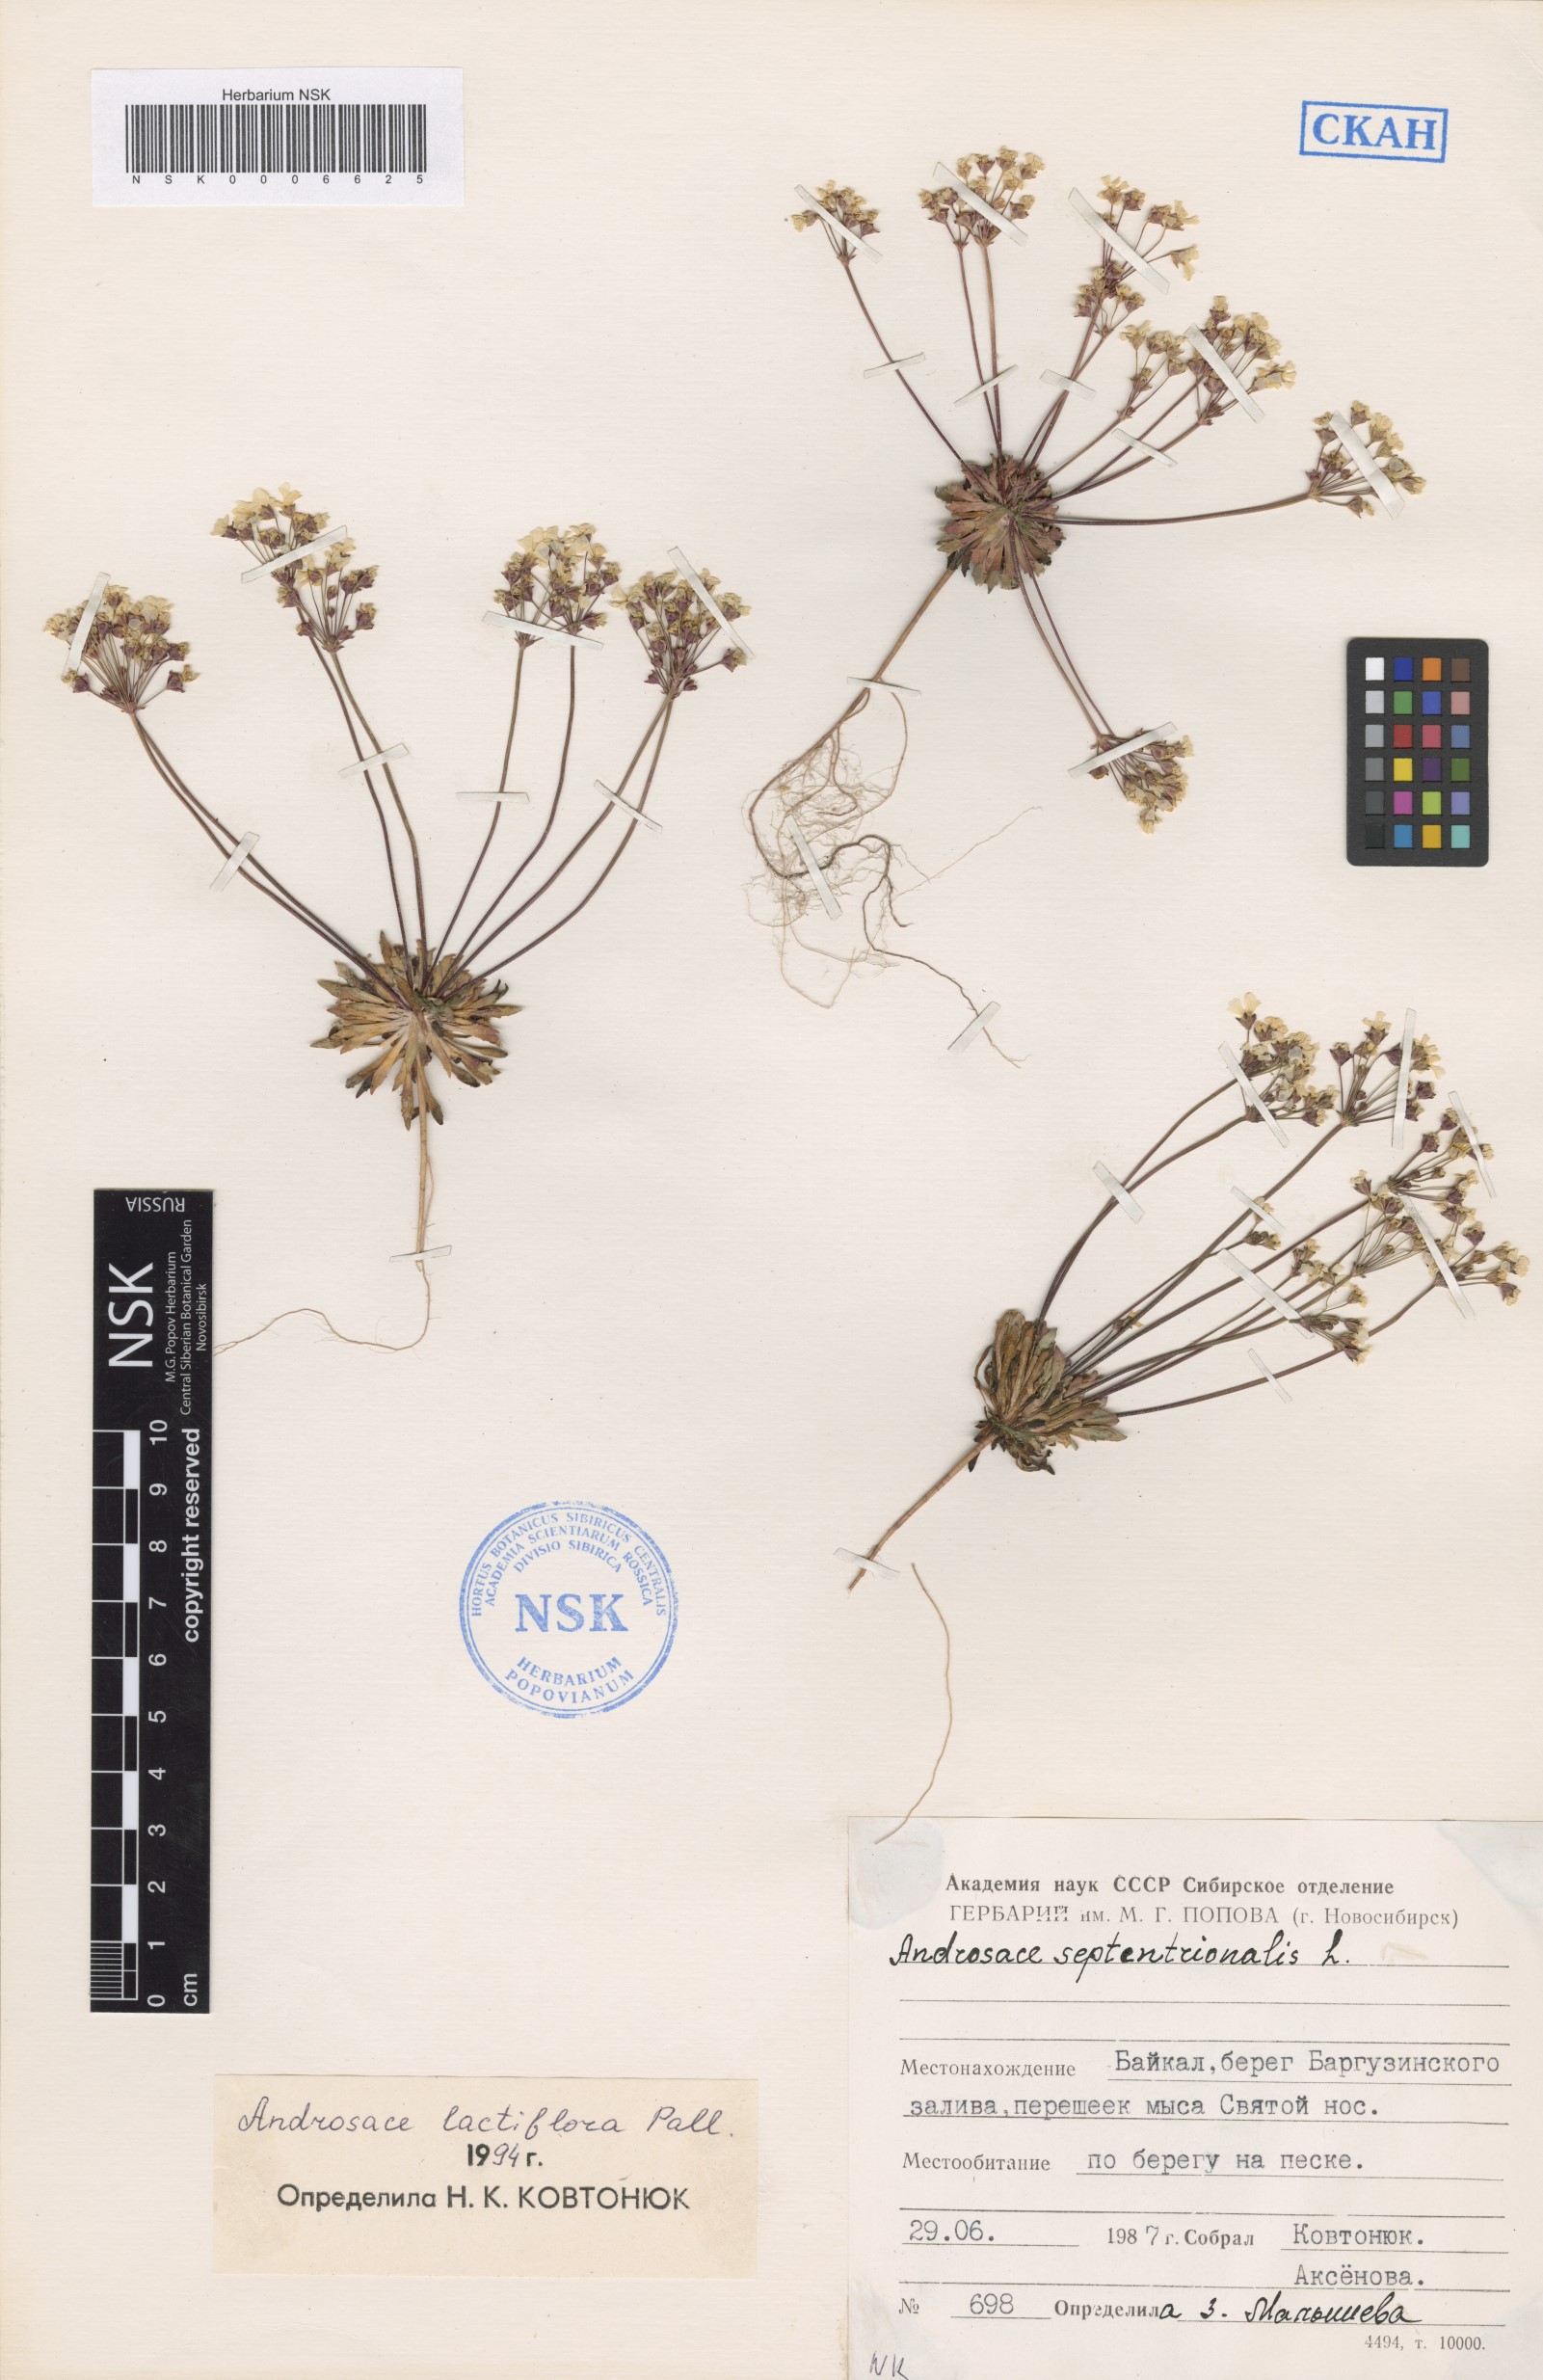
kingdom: Plantae
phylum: Tracheophyta
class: Magnoliopsida
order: Ericales
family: Primulaceae
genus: Androsace
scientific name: Androsace lactiflora
